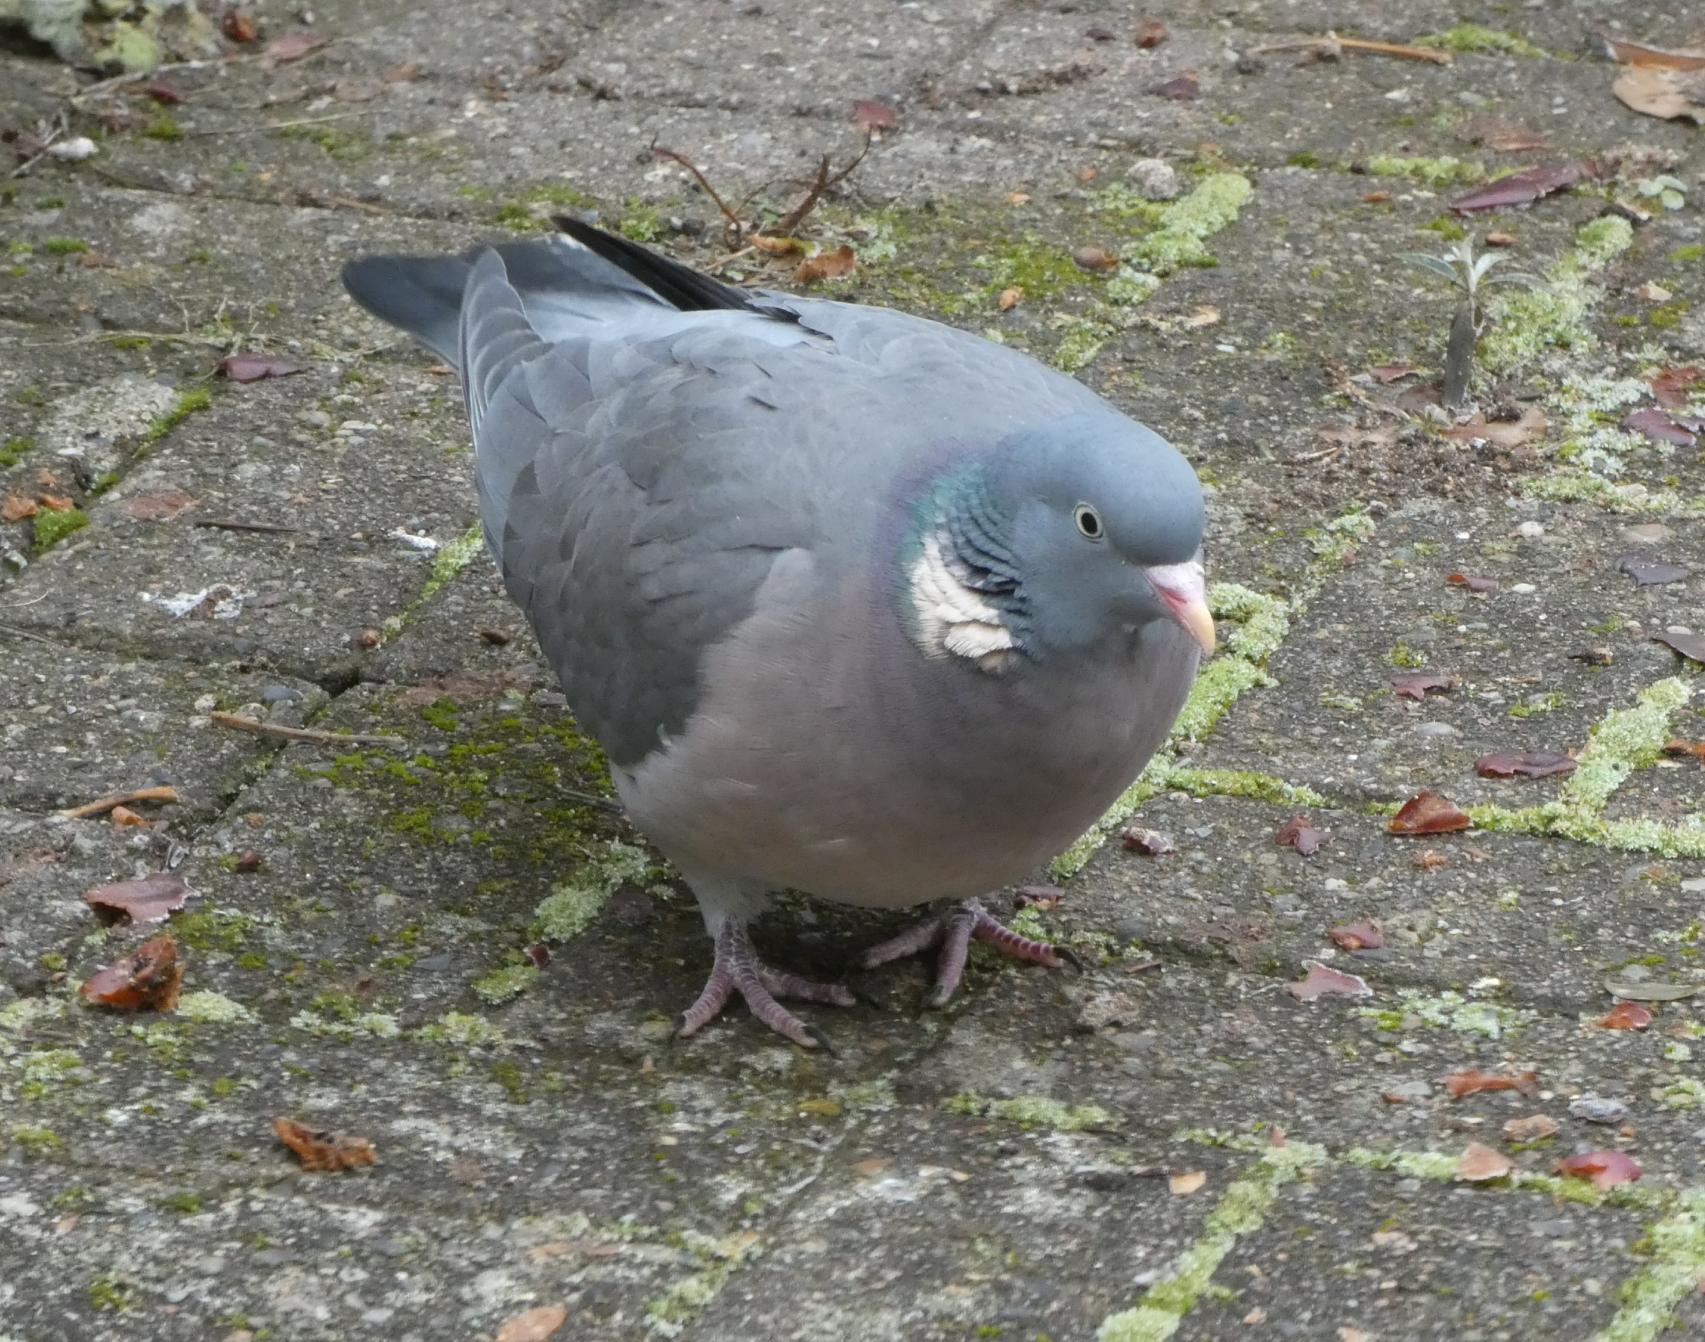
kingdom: Animalia
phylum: Chordata
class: Aves
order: Columbiformes
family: Columbidae
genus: Columba
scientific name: Columba palumbus
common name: Ringdue
